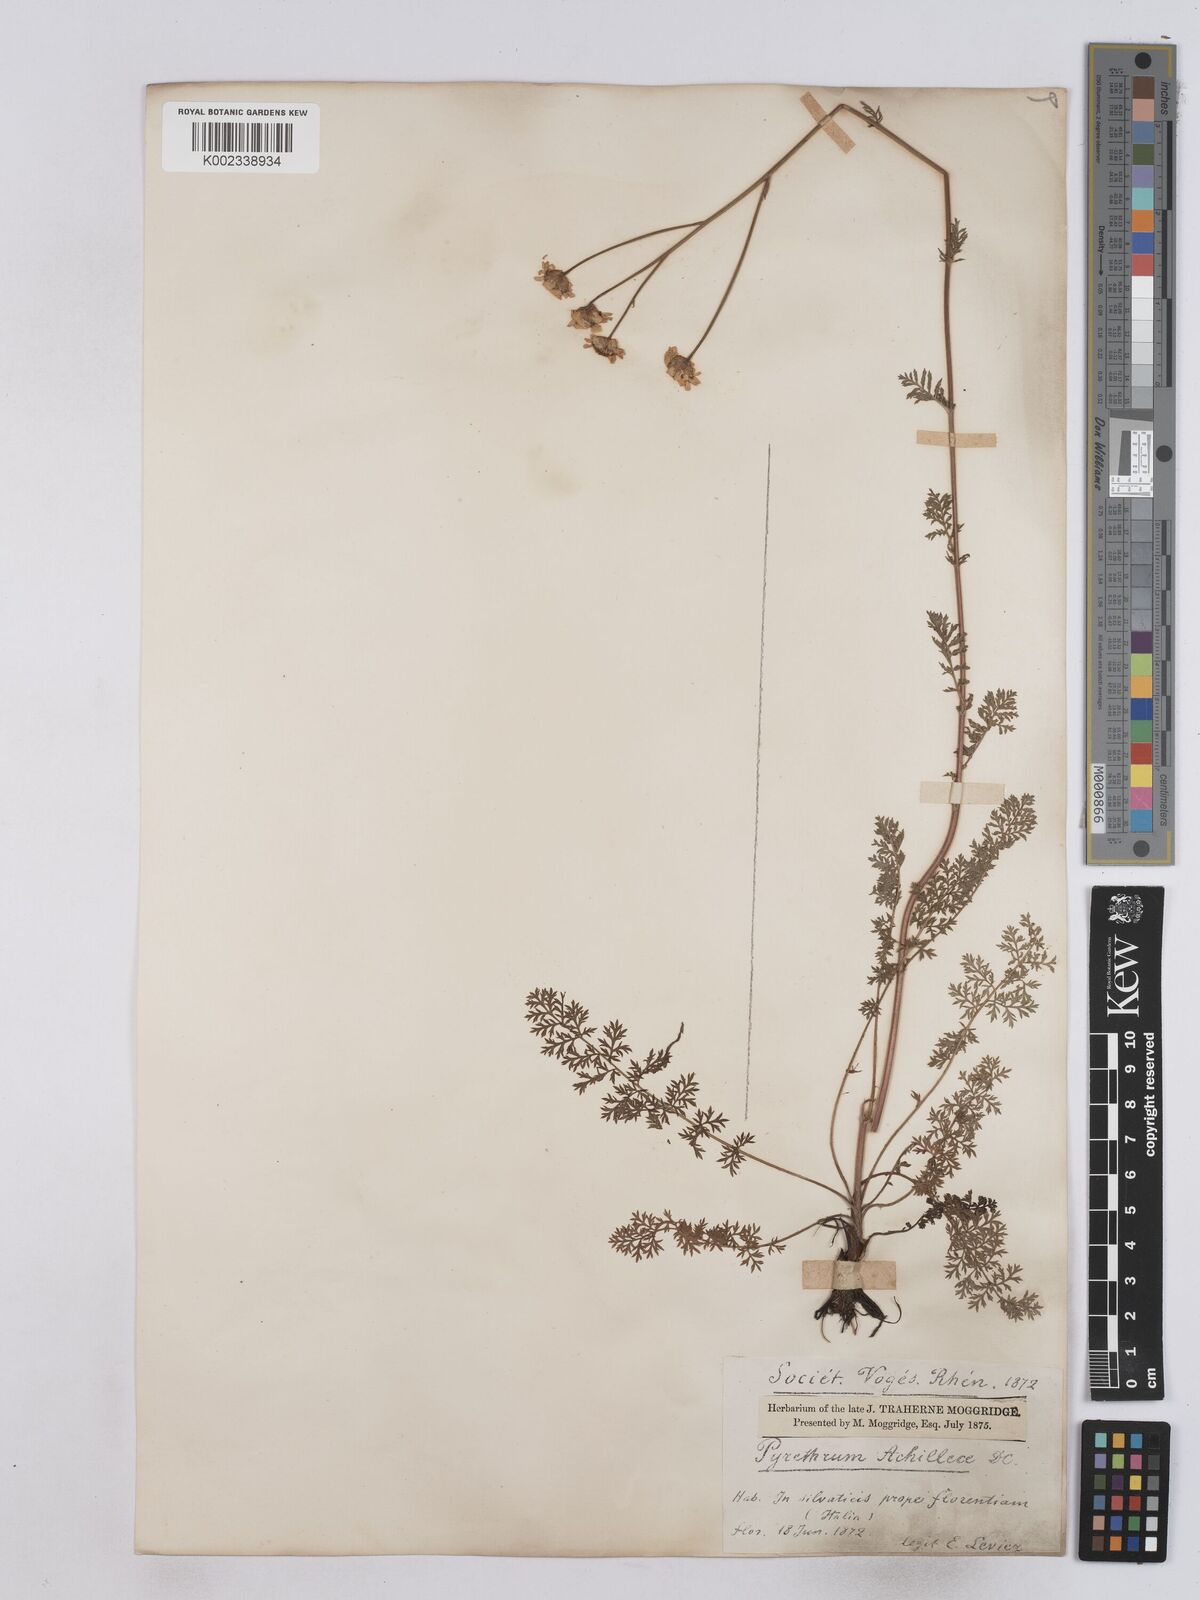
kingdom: Plantae
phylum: Tracheophyta
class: Magnoliopsida
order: Asterales
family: Asteraceae
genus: Tanacetum
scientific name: Tanacetum achilleae
